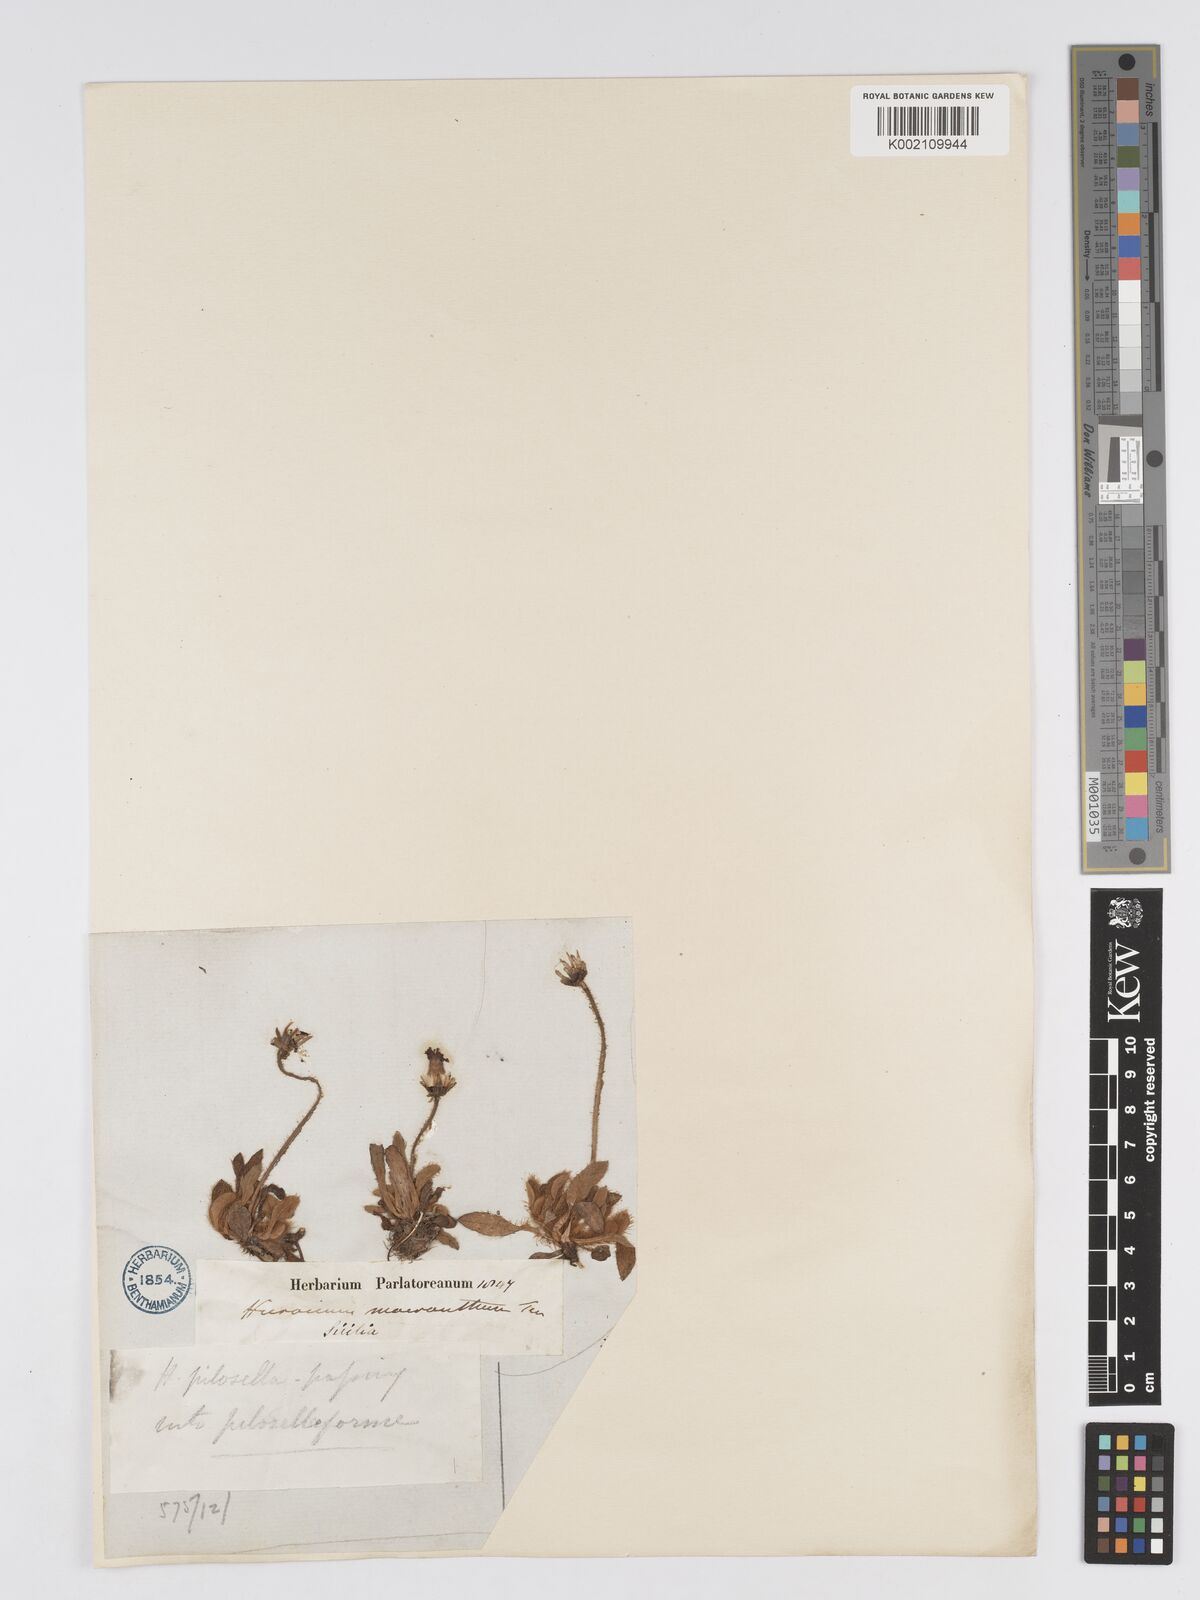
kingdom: Plantae
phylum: Tracheophyta
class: Magnoliopsida
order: Asterales
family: Asteraceae
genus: Pilosella
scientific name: Pilosella hoppeana
